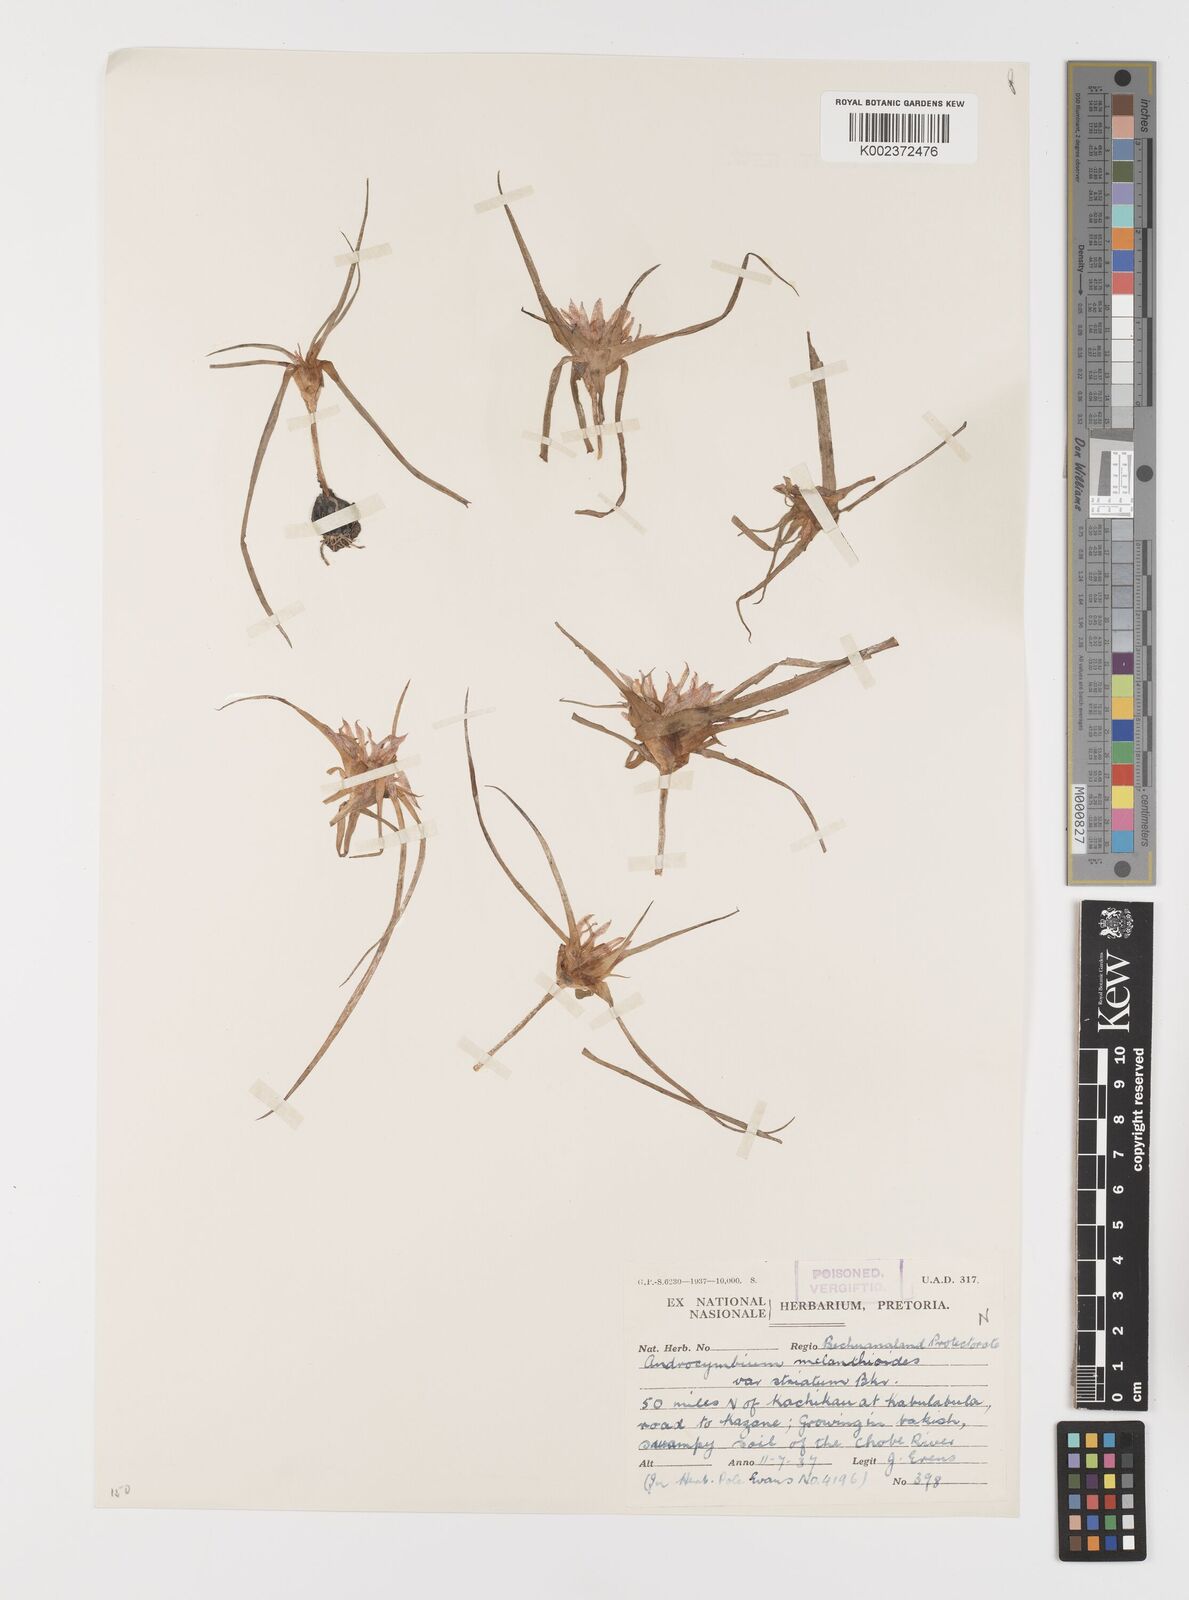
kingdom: Plantae
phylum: Tracheophyta
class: Liliopsida
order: Liliales
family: Colchicaceae
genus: Colchicum
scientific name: Colchicum roseum
